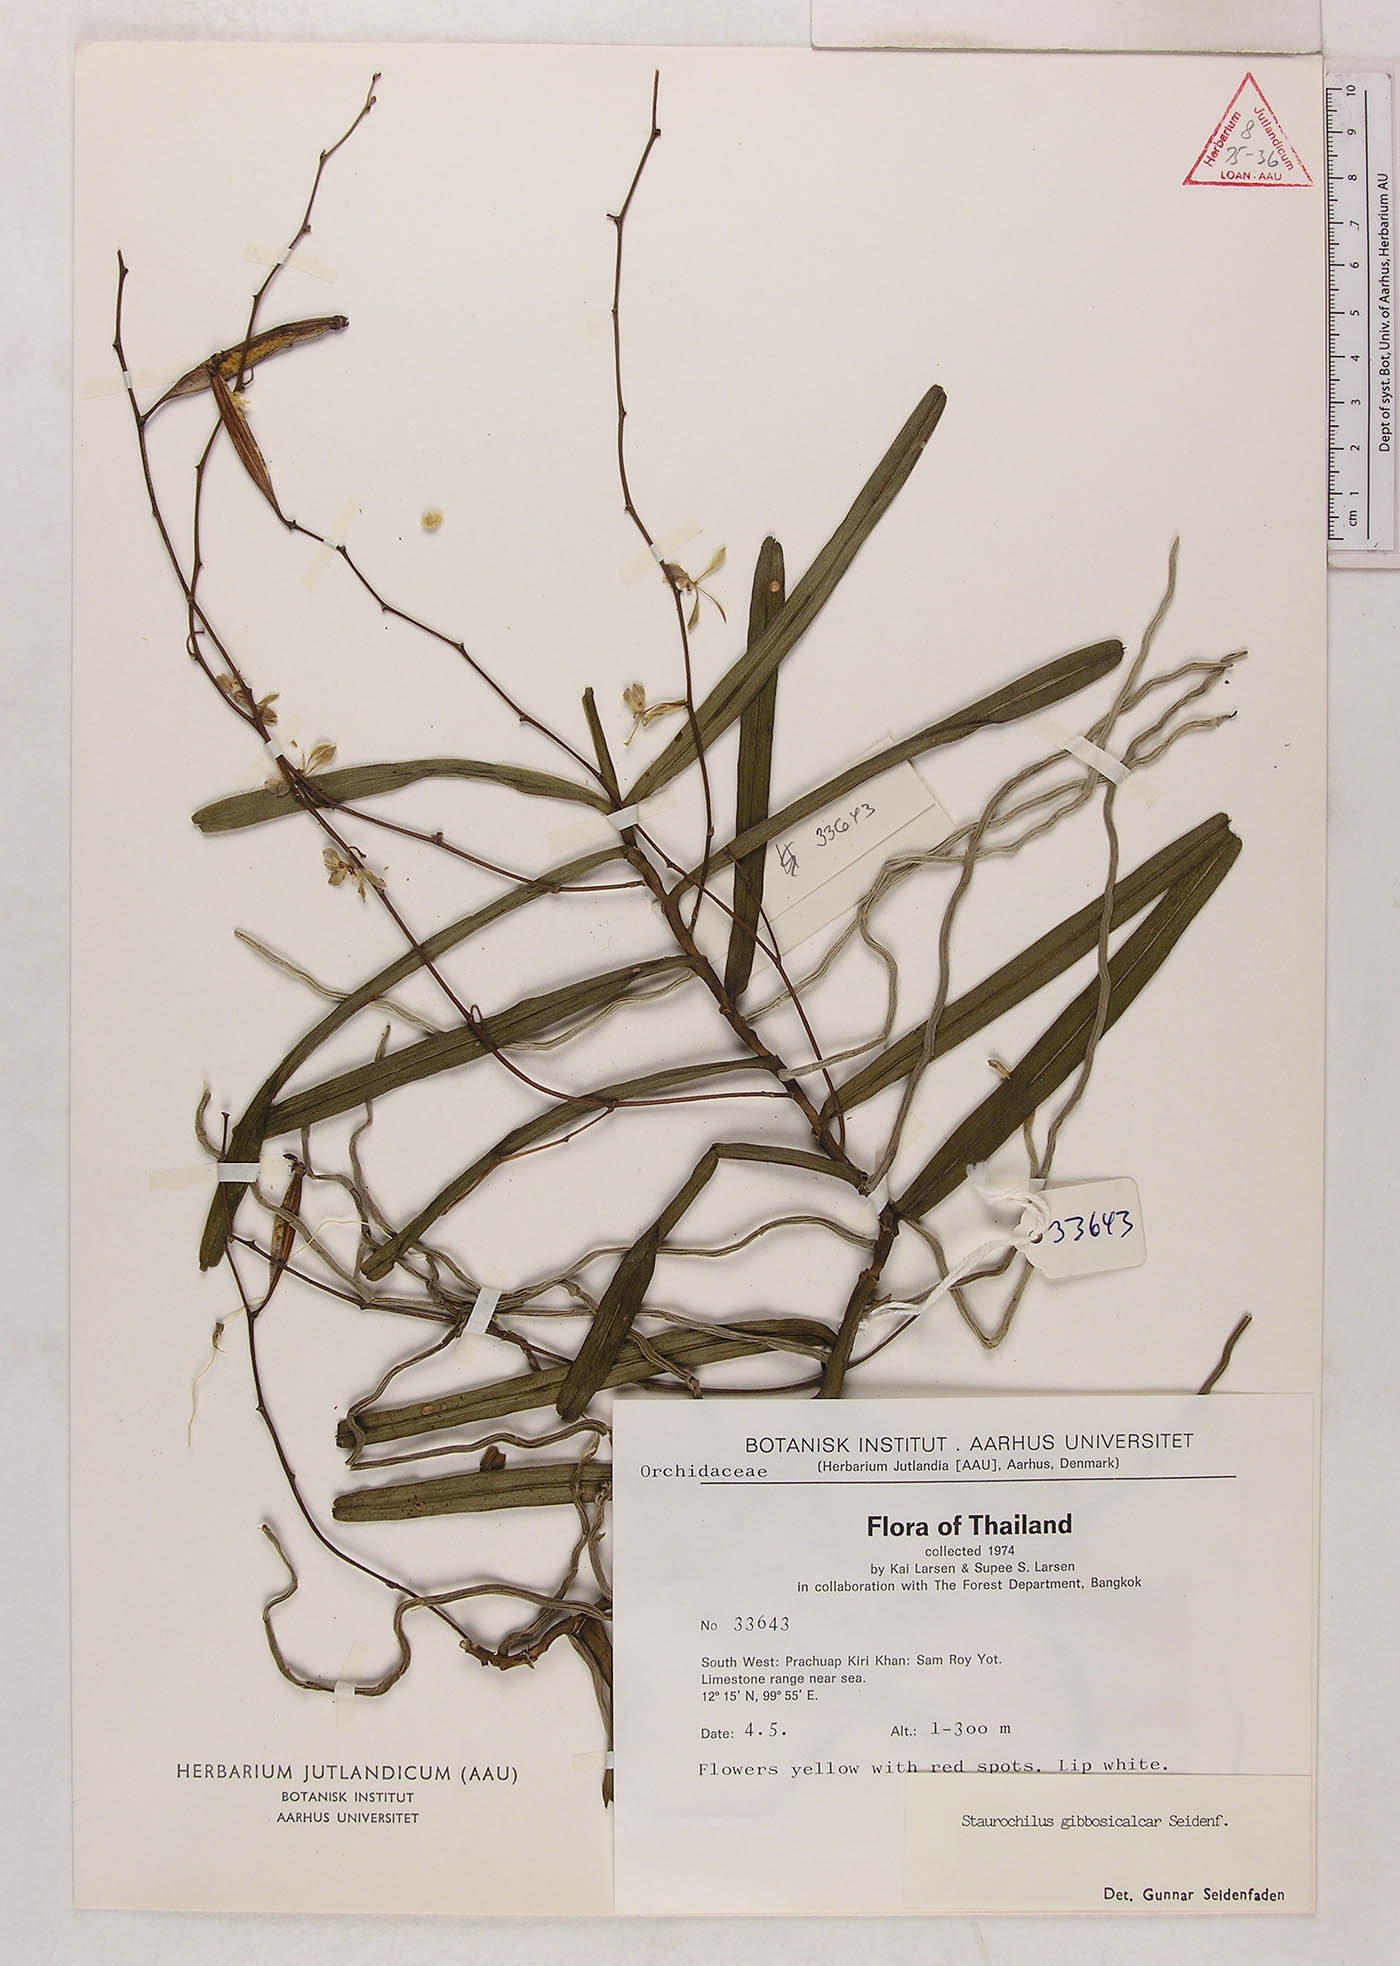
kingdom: Plantae
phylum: Tracheophyta
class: Liliopsida
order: Asparagales
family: Orchidaceae
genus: Trichoglottis
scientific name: Trichoglottis gibbosicalcar
